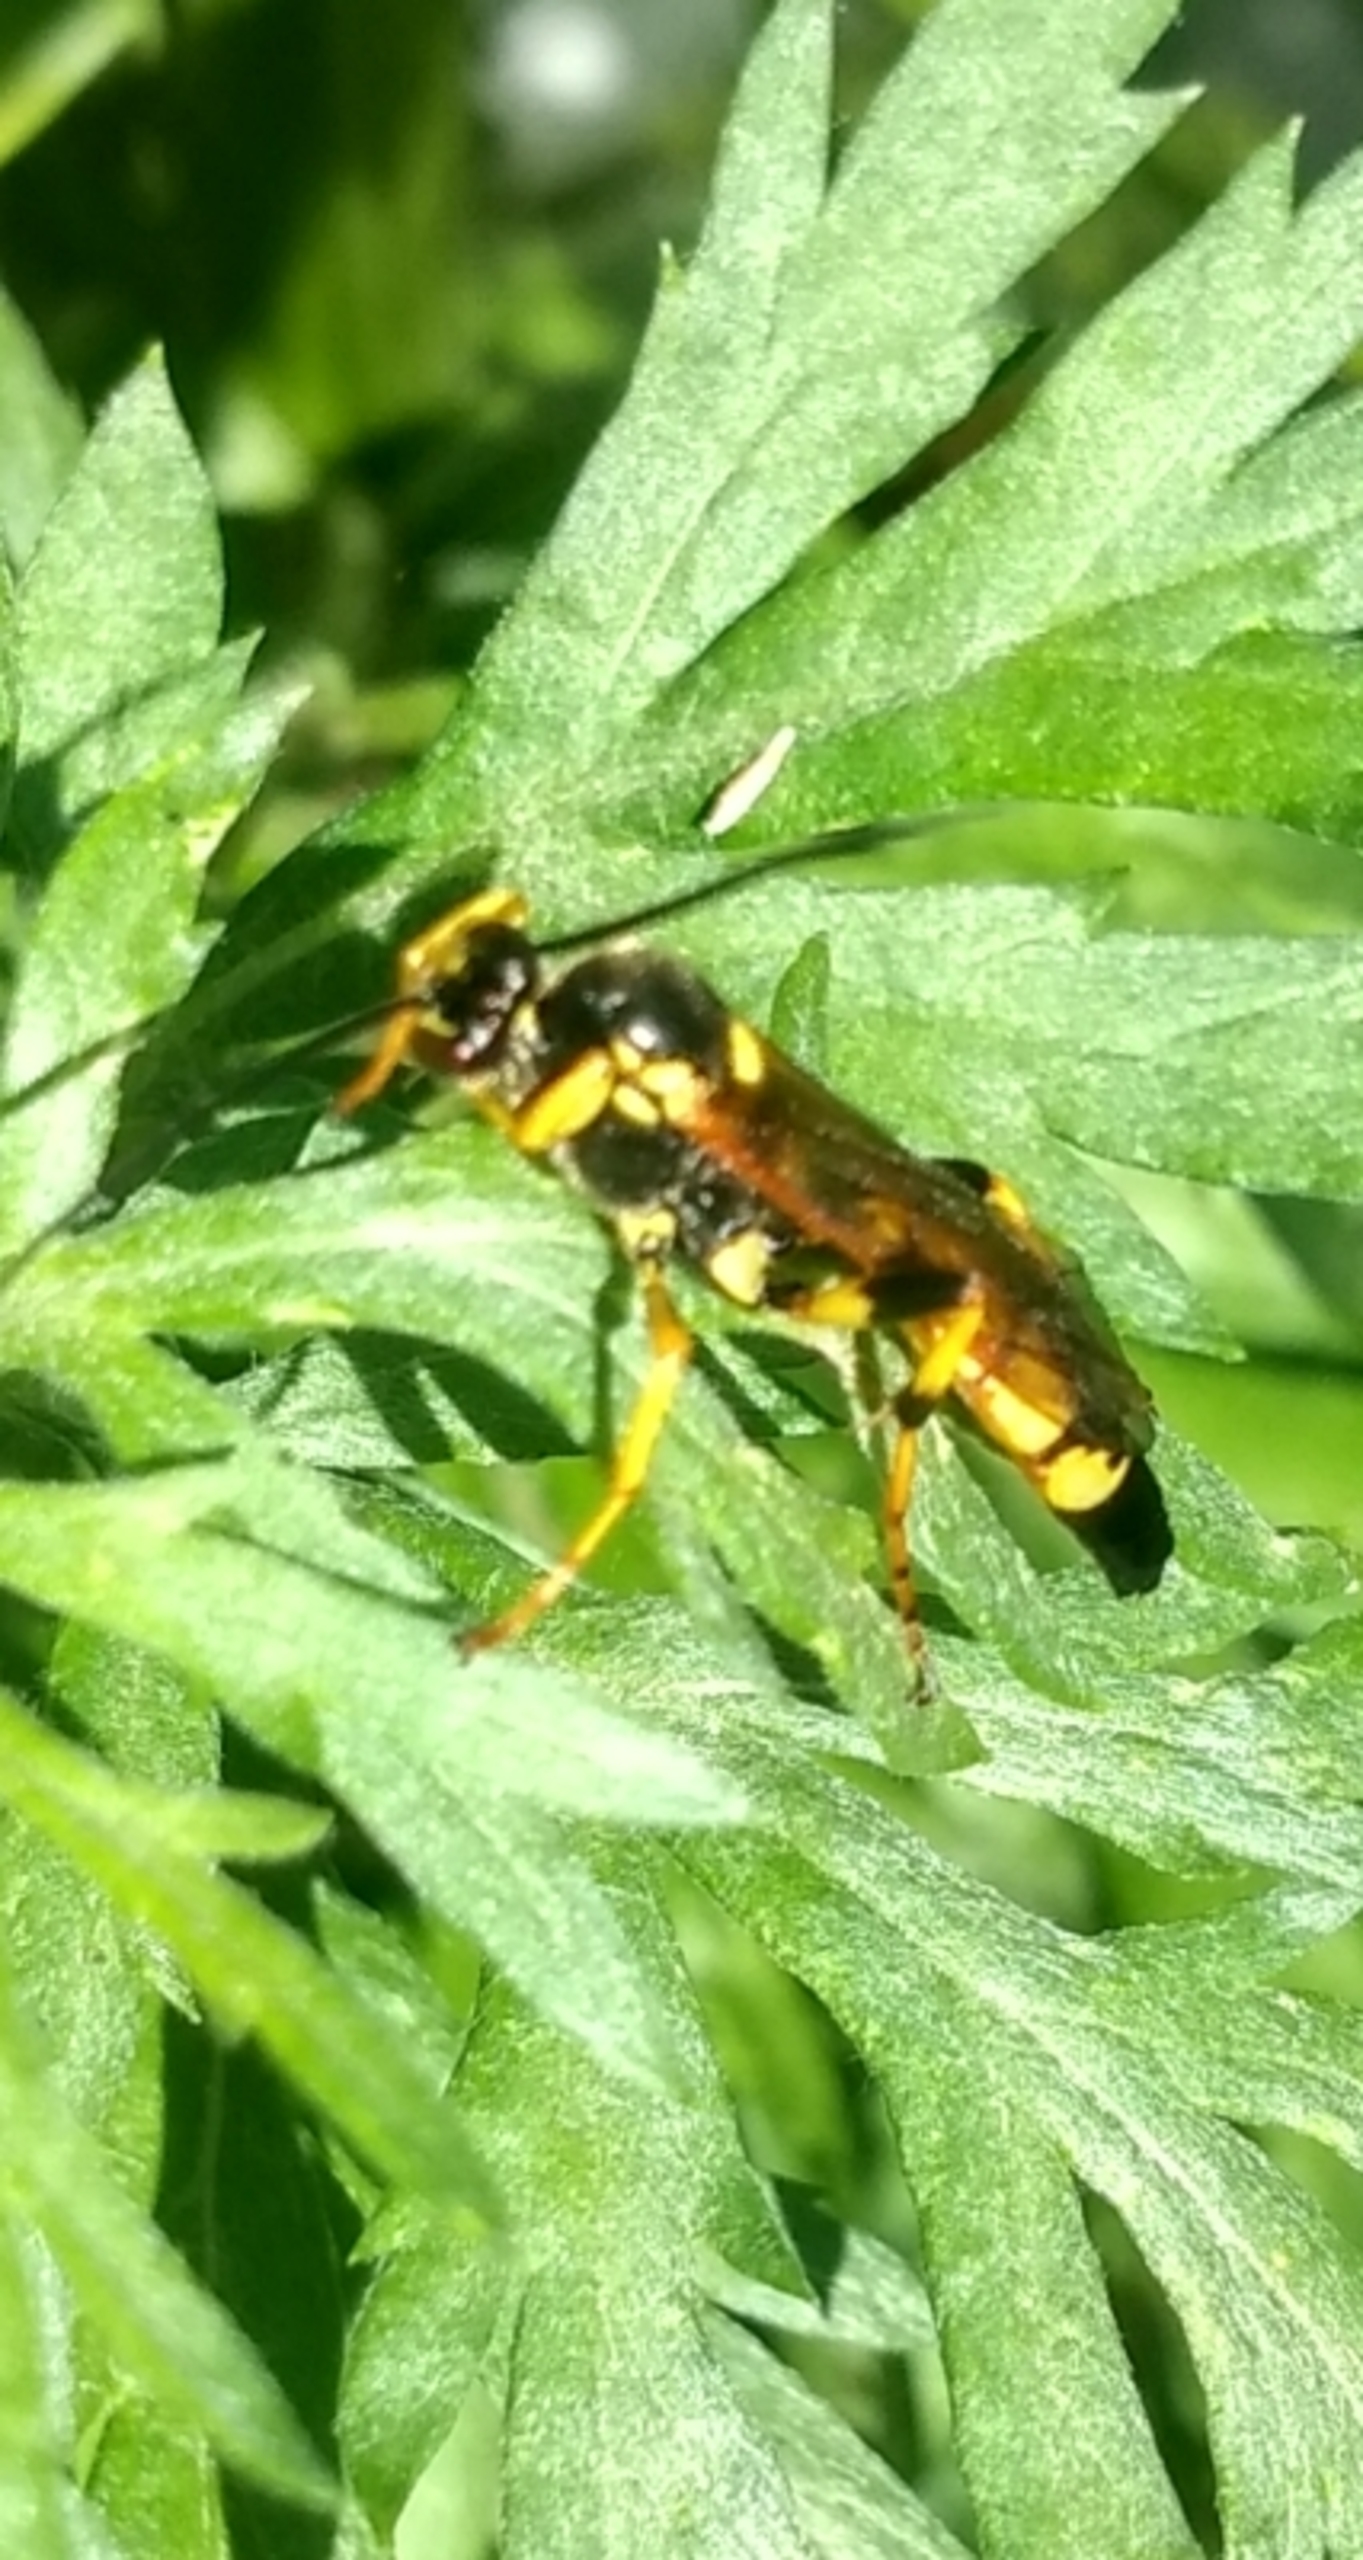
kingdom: Animalia
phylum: Arthropoda
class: Insecta
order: Hymenoptera
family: Ichneumonidae
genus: Ichneumon
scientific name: Ichneumon xanthorius
